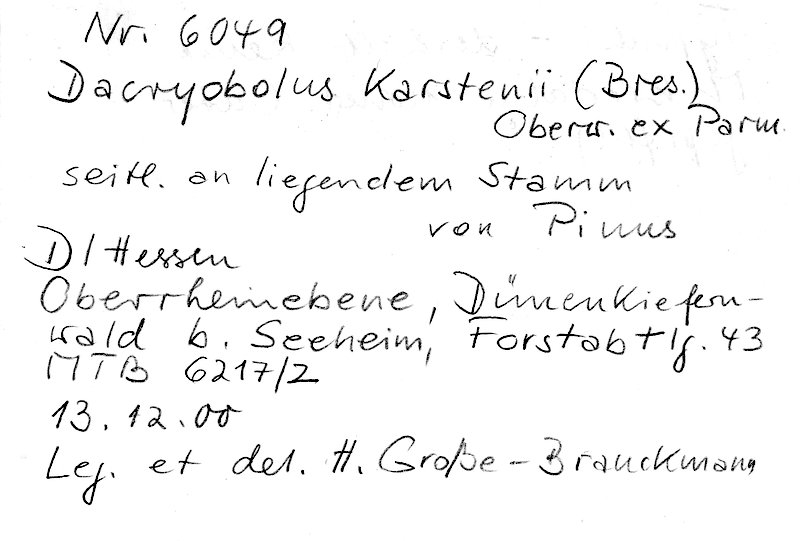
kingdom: Plantae
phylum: Tracheophyta
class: Pinopsida
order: Pinales
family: Pinaceae
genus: Pinus
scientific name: Pinus
